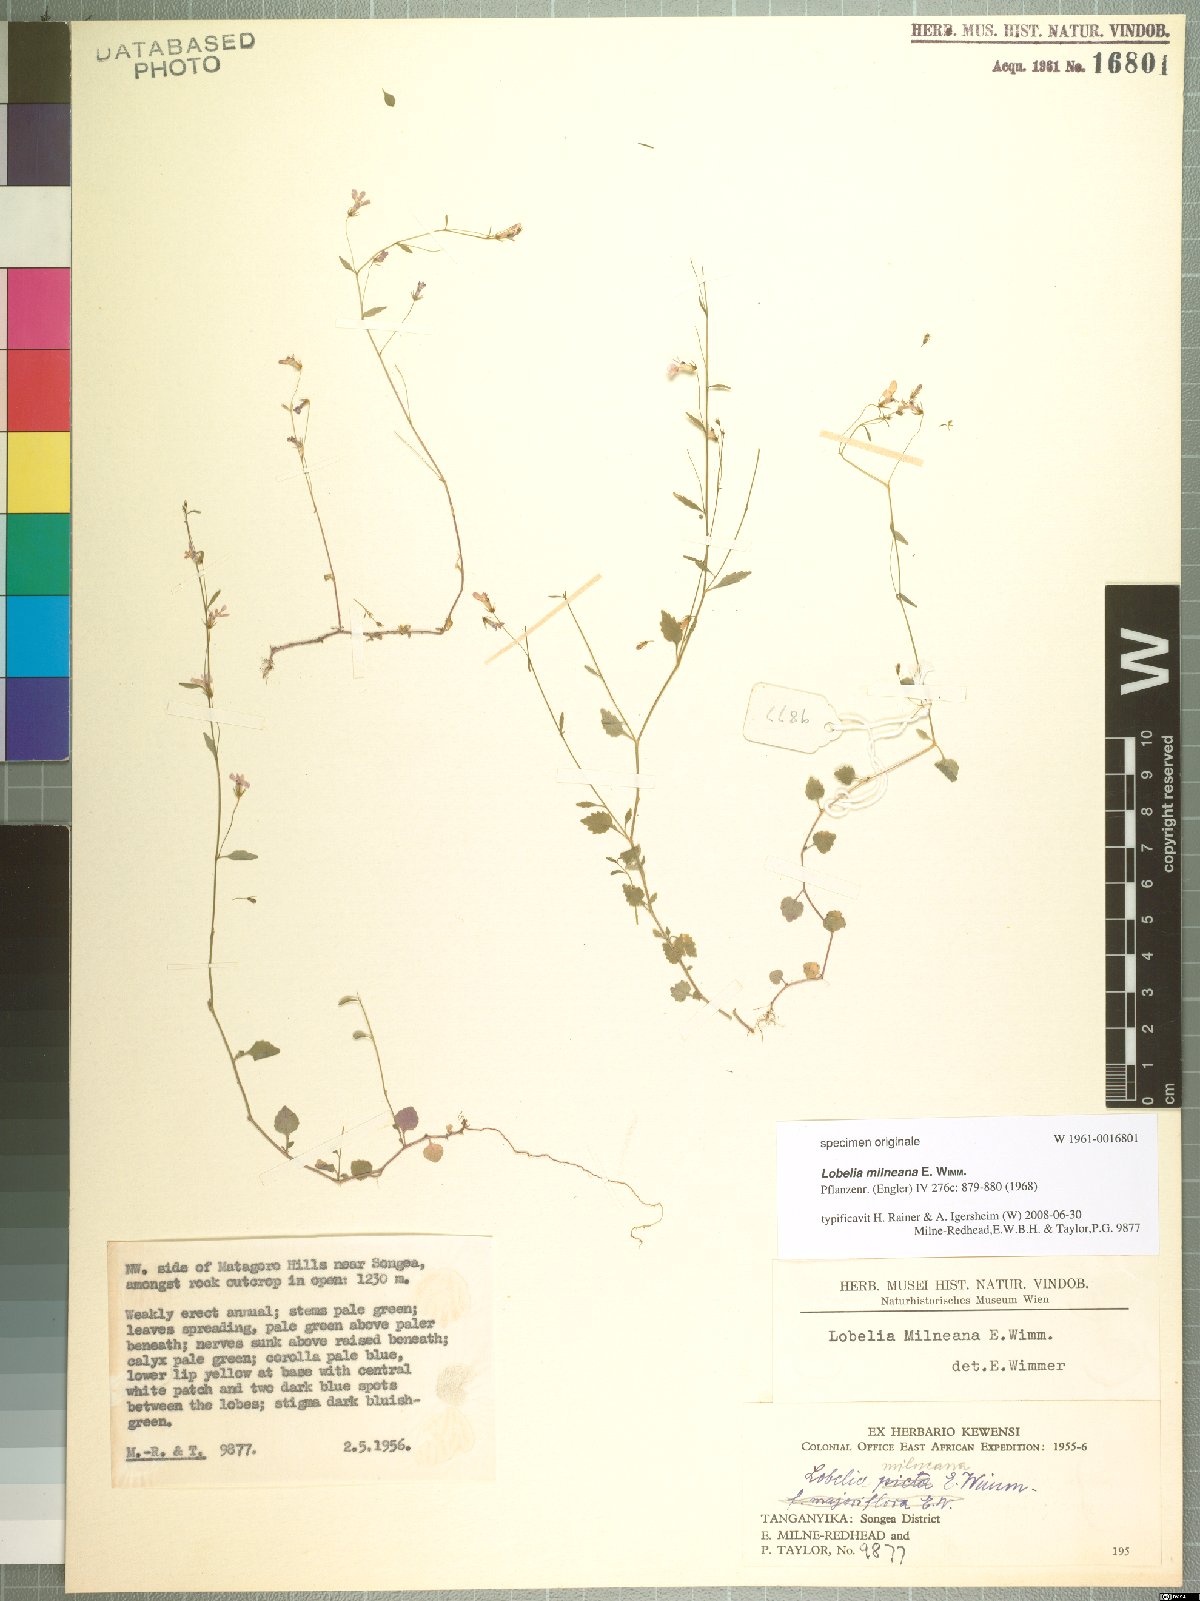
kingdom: Plantae
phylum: Tracheophyta
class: Magnoliopsida
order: Asterales
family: Campanulaceae
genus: Lobelia
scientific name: Lobelia trullifolia
